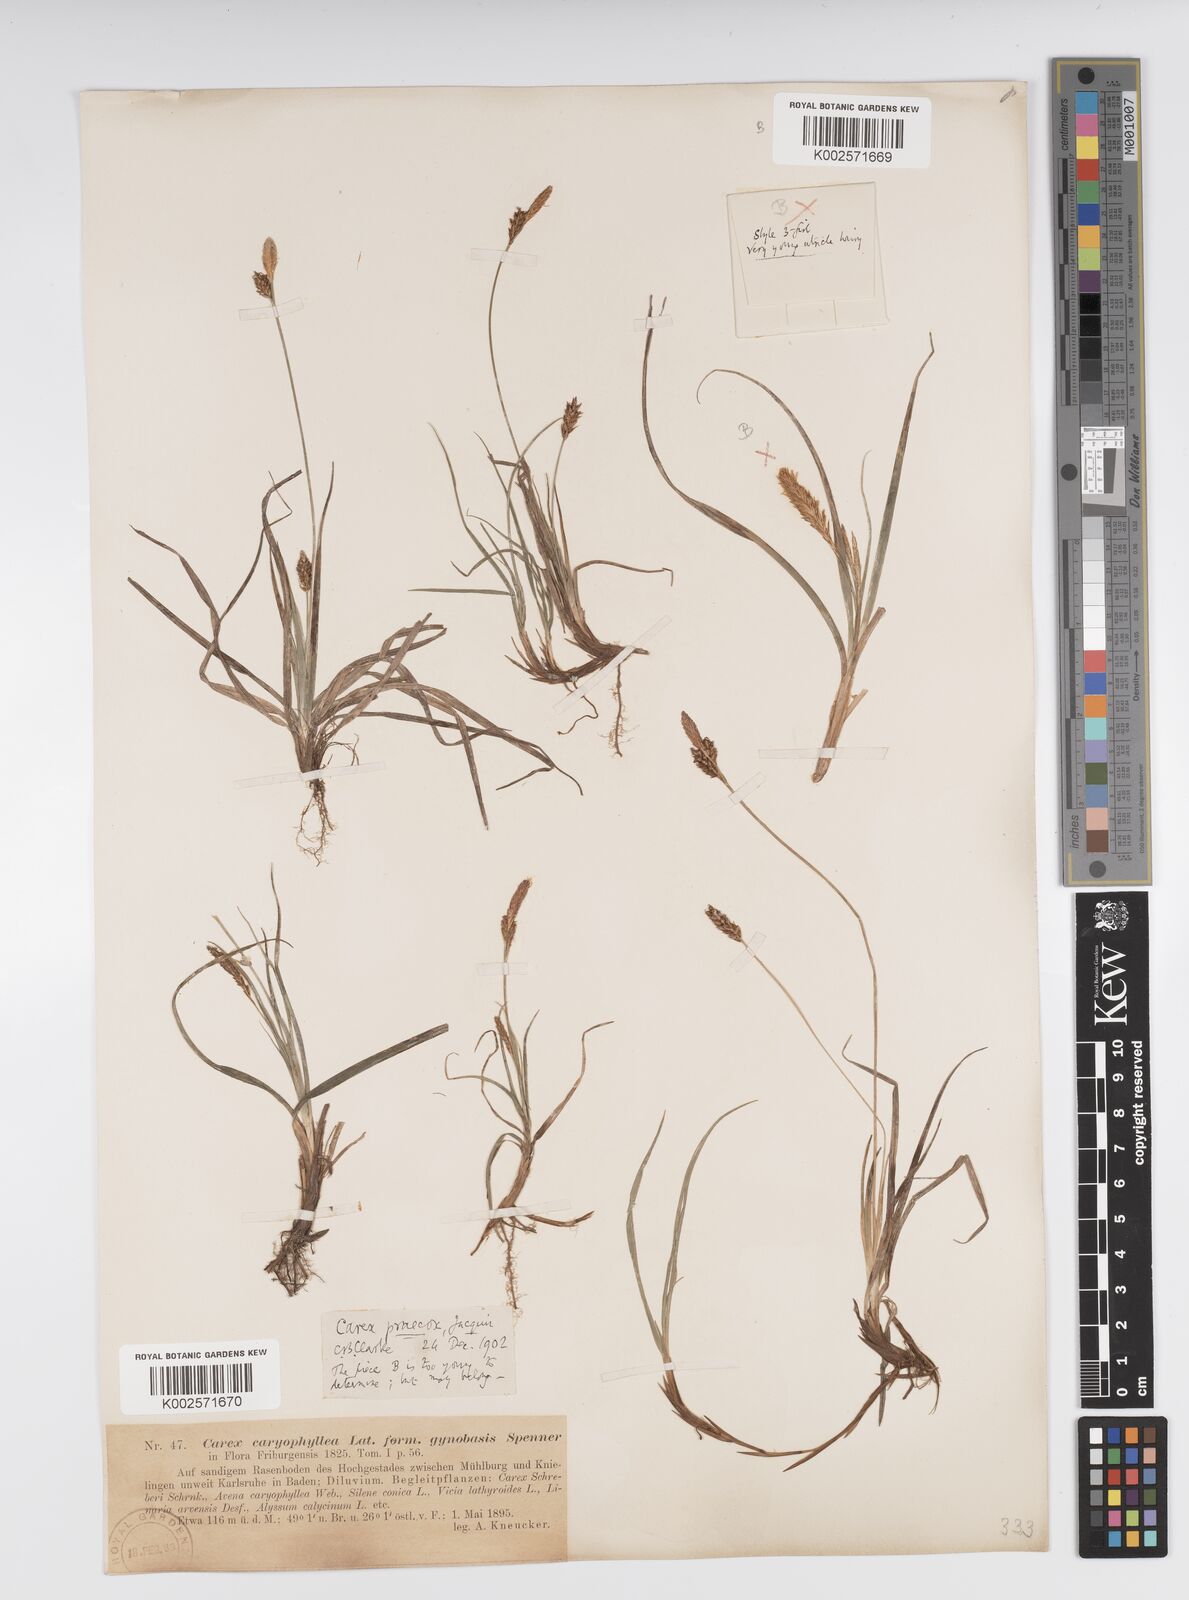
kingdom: Plantae
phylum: Tracheophyta
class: Liliopsida
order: Poales
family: Cyperaceae
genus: Carex
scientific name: Carex caryophyllea
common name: Spring sedge
